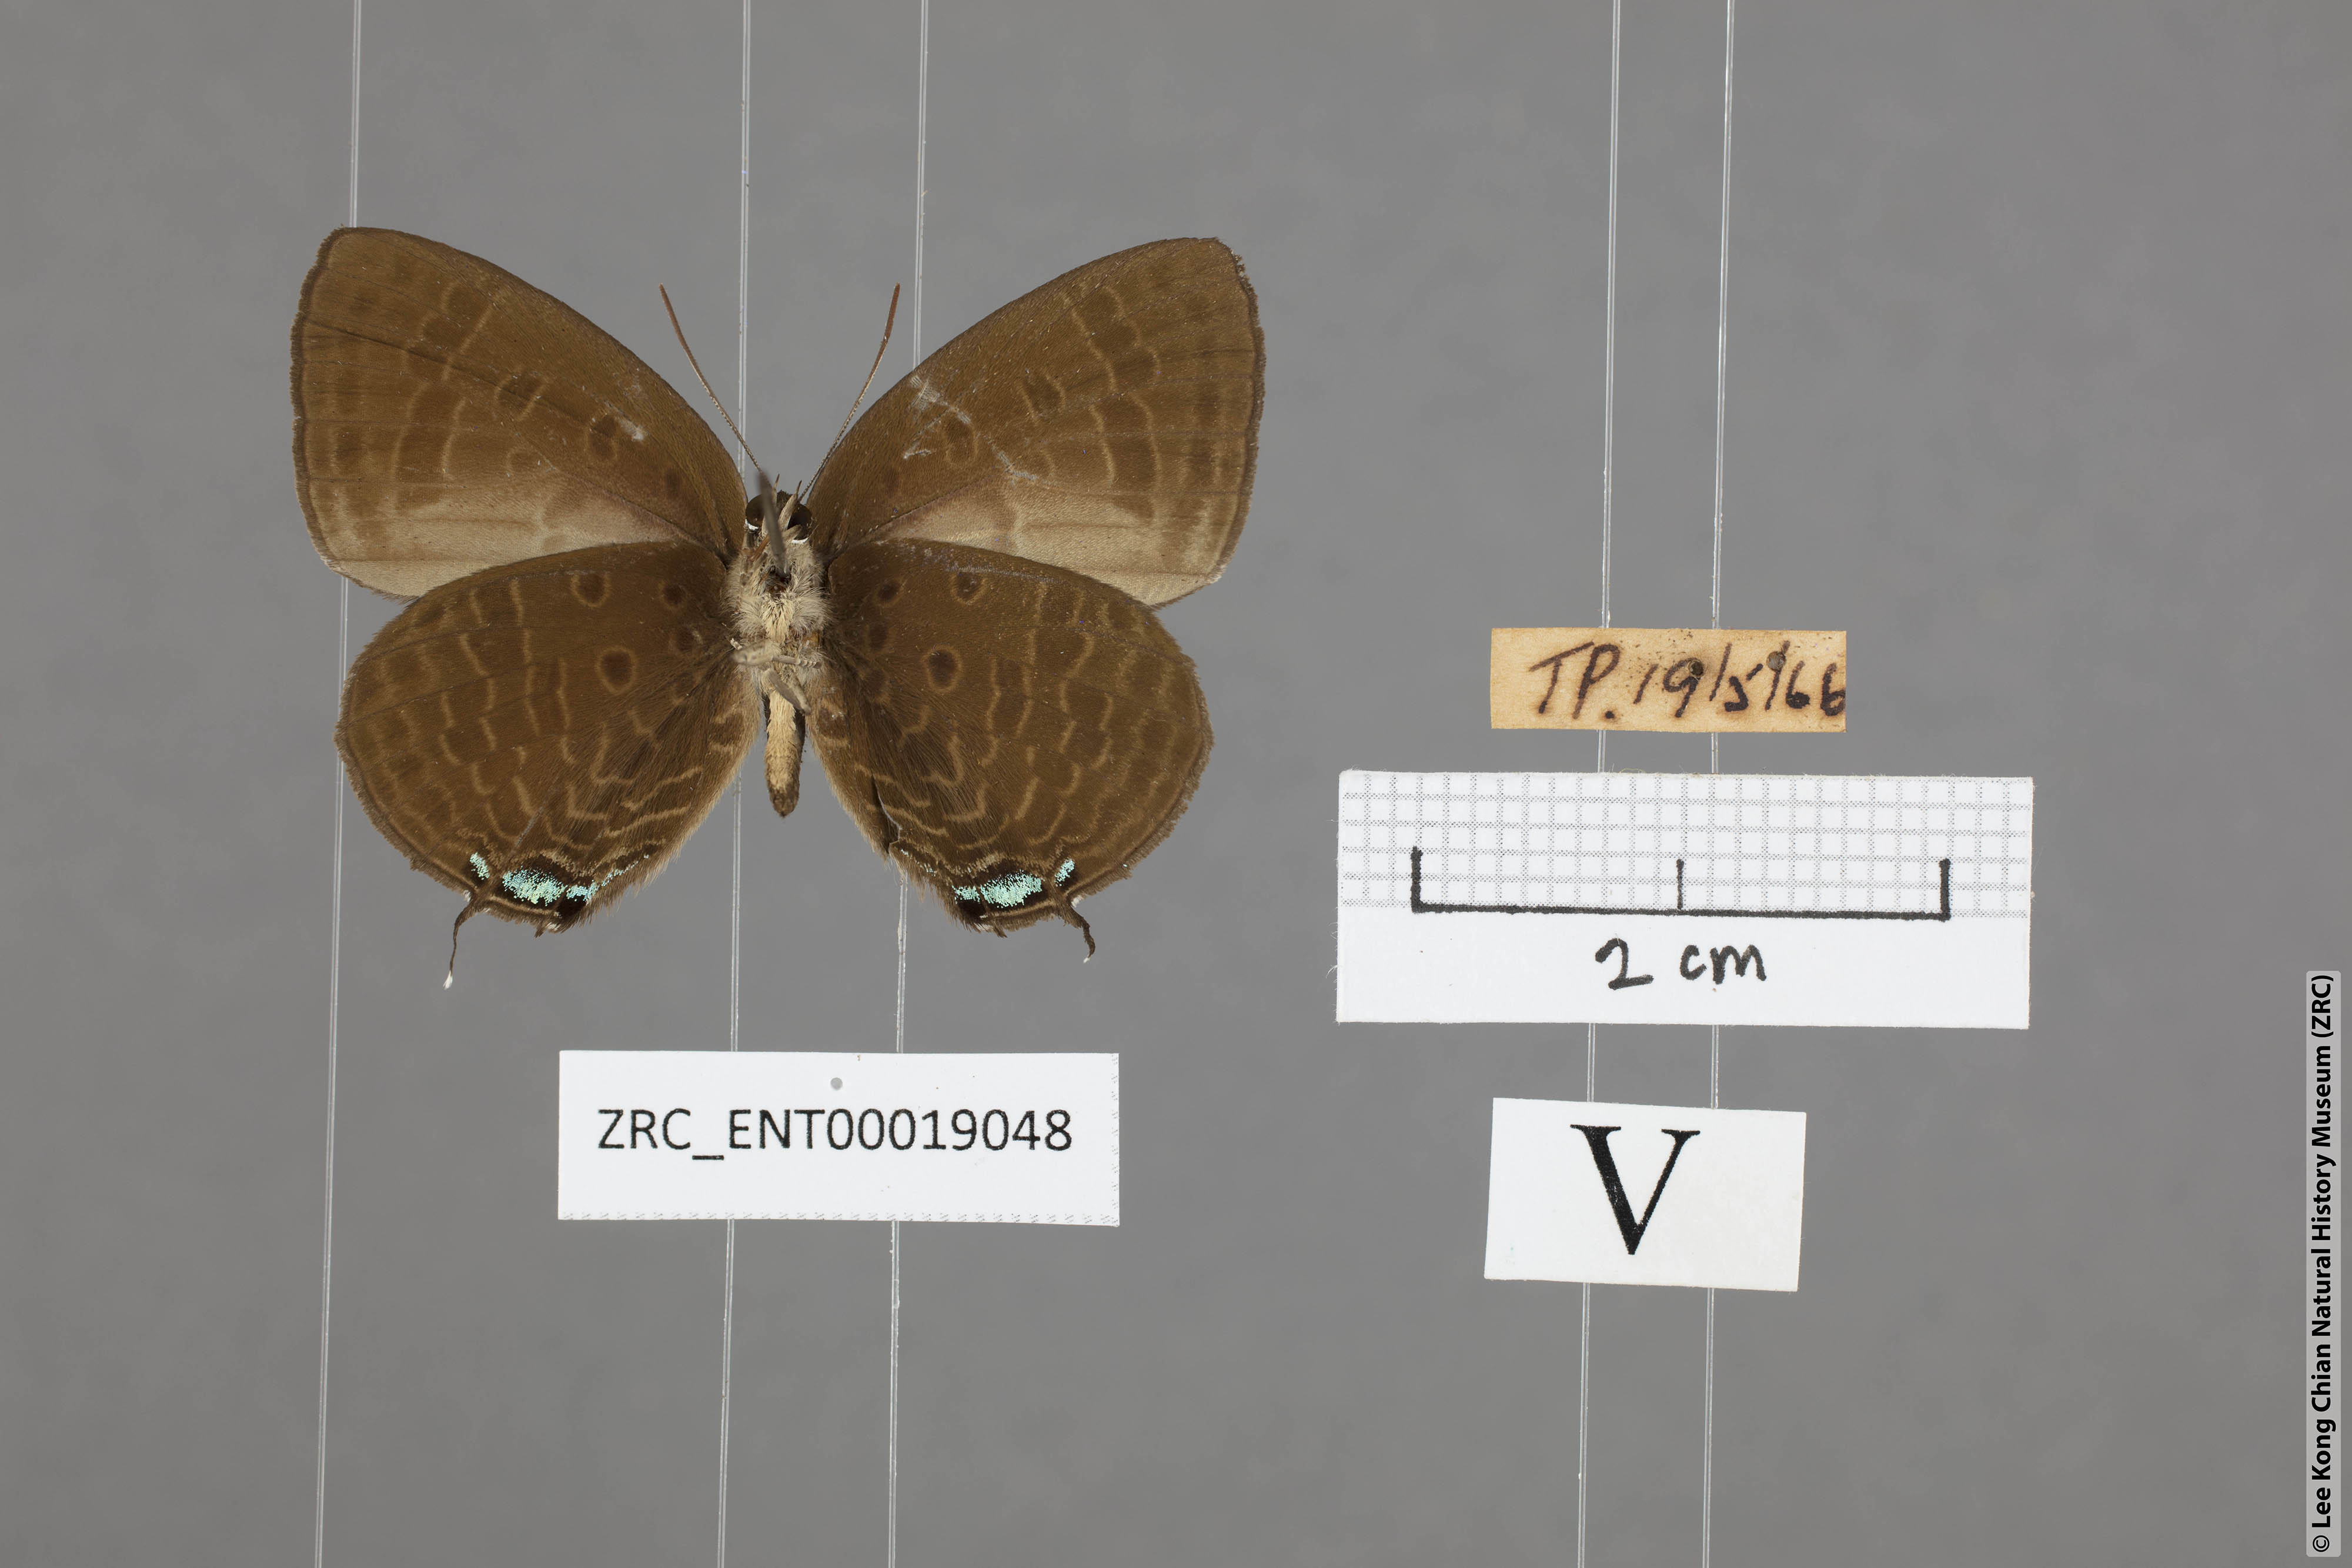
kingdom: Animalia
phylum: Arthropoda
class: Insecta
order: Lepidoptera
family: Lycaenidae
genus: Arhopala
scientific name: Arhopala agrata
